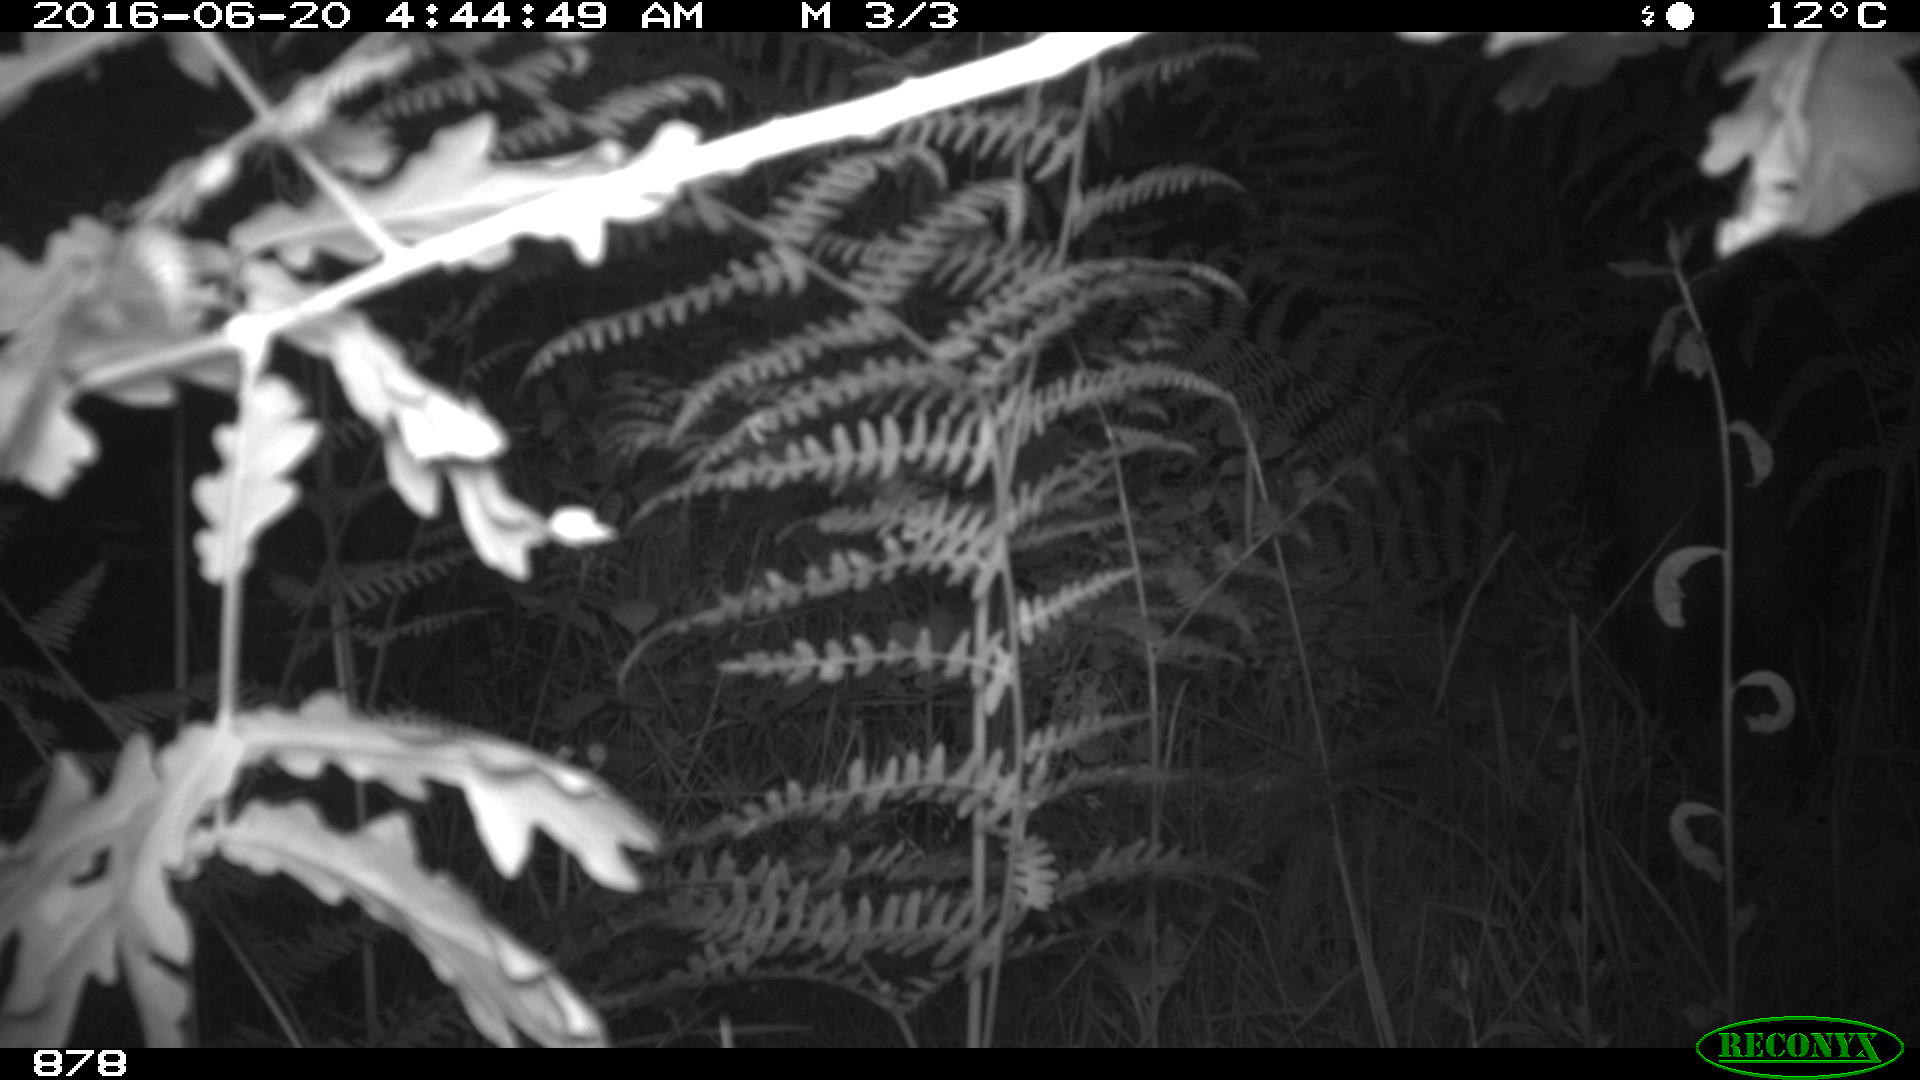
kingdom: Animalia
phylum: Chordata
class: Mammalia
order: Artiodactyla
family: Suidae
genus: Sus
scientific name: Sus scrofa
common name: Wild boar
